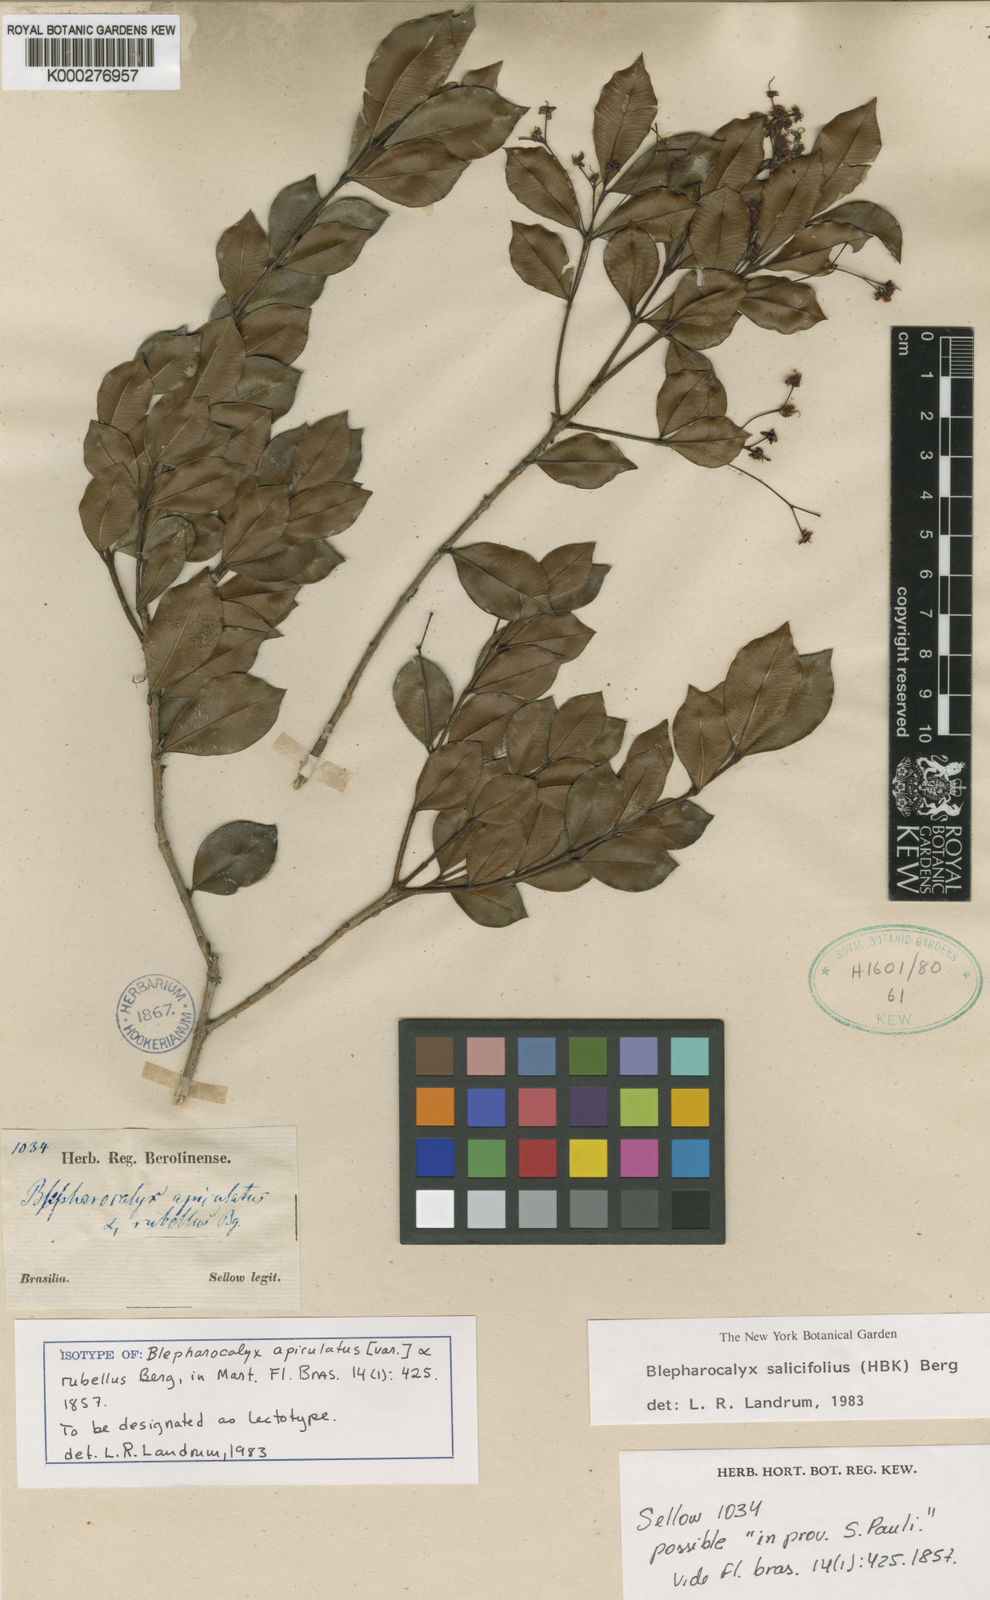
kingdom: Plantae
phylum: Tracheophyta
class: Magnoliopsida
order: Myrtales
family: Myrtaceae
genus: Blepharocalyx
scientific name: Blepharocalyx salicifolius
